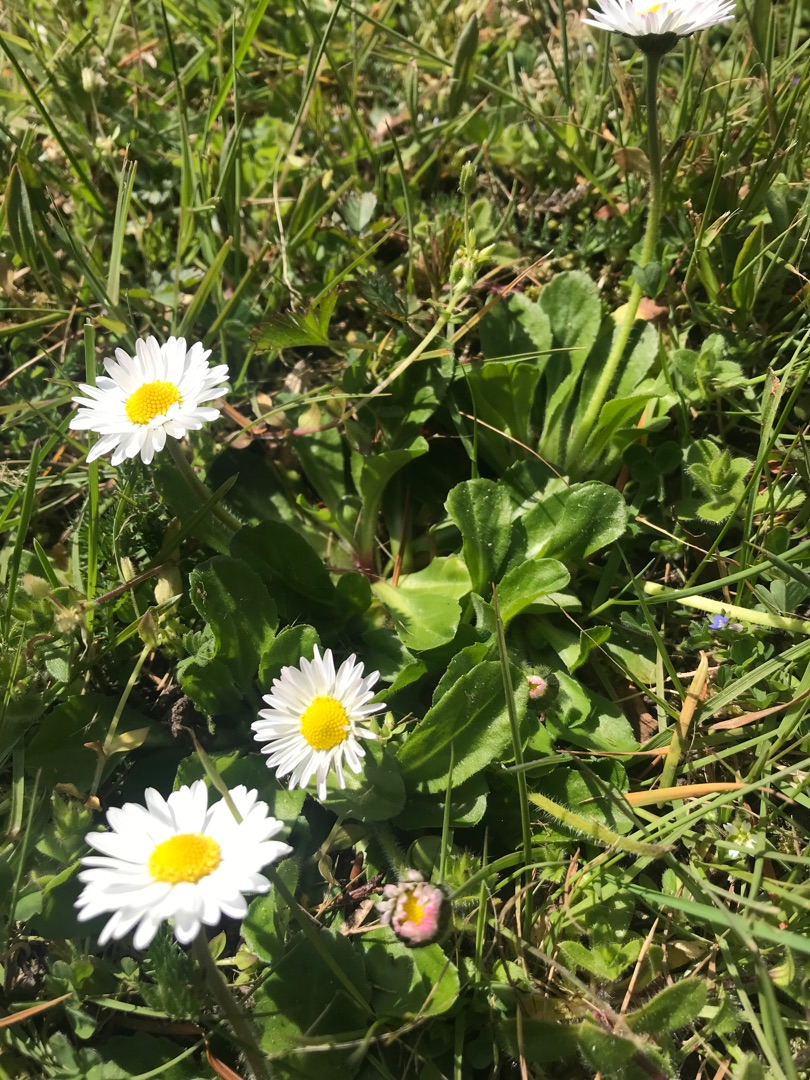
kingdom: Plantae
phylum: Tracheophyta
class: Magnoliopsida
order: Asterales
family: Asteraceae
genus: Bellis
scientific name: Bellis perennis
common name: Tusindfryd
